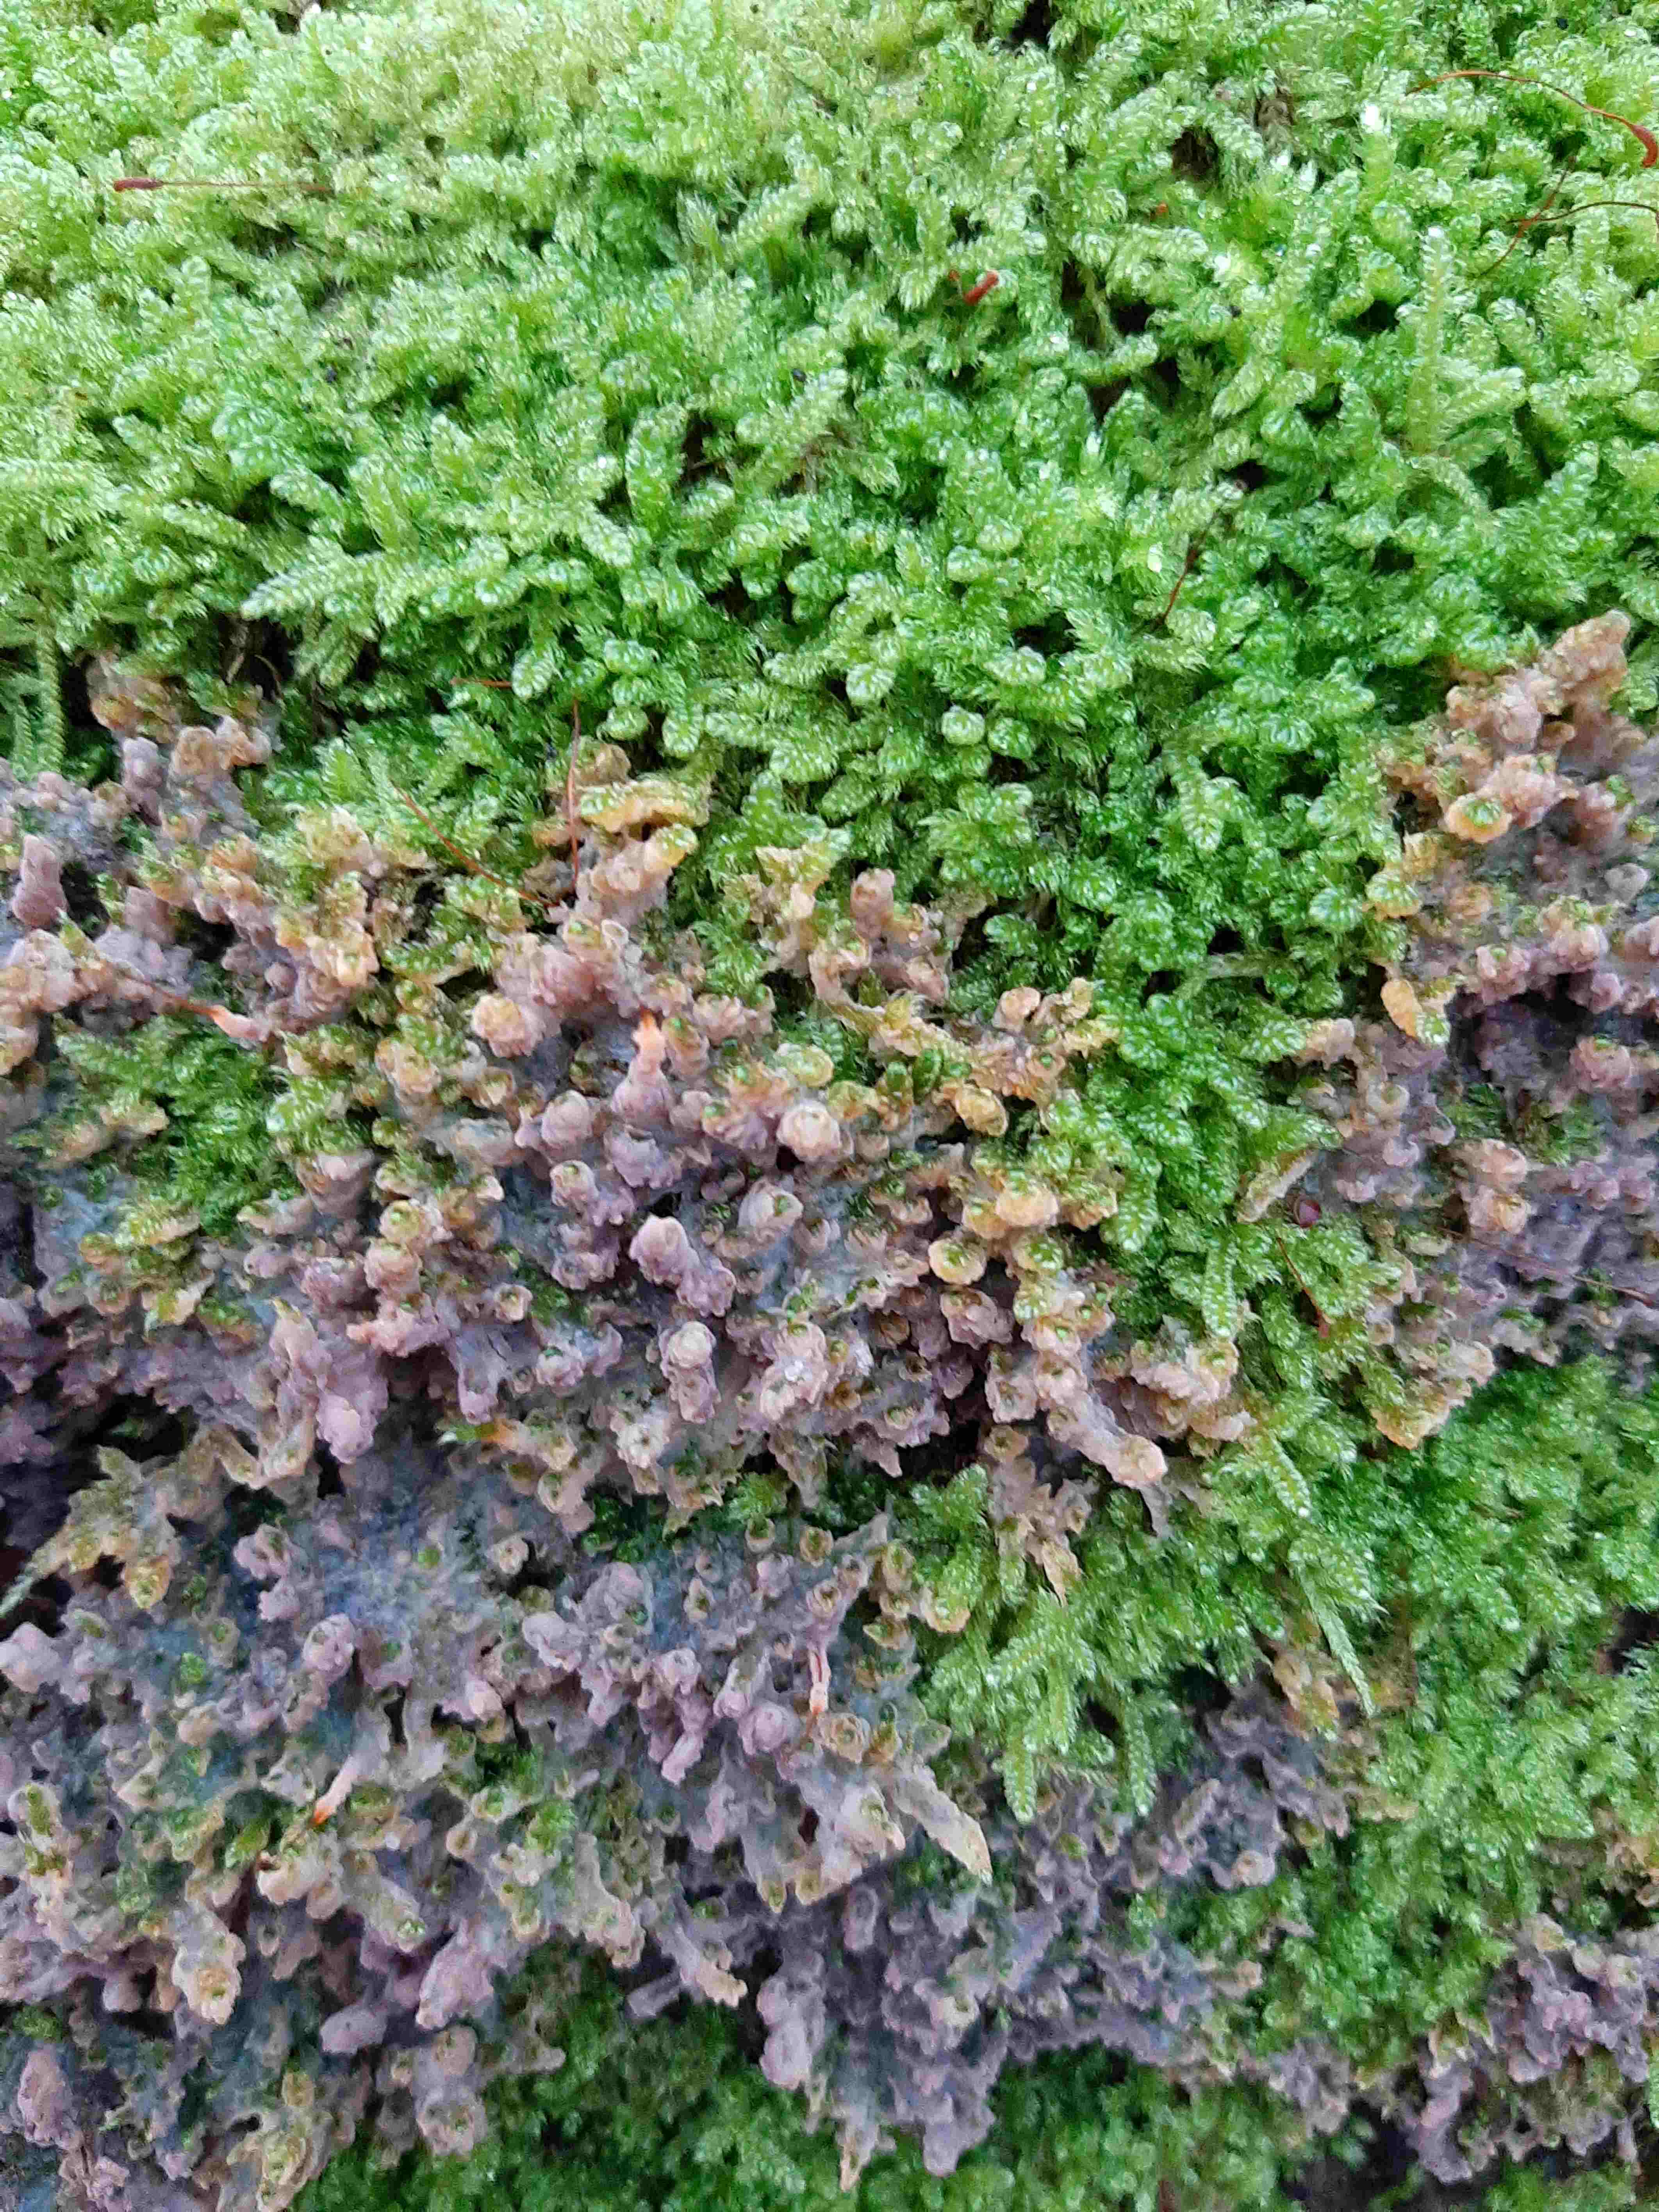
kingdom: Fungi
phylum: Basidiomycota
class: Agaricomycetes
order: Polyporales
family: Meruliaceae
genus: Phlebia
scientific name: Phlebia radiata
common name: stråle-åresvamp
